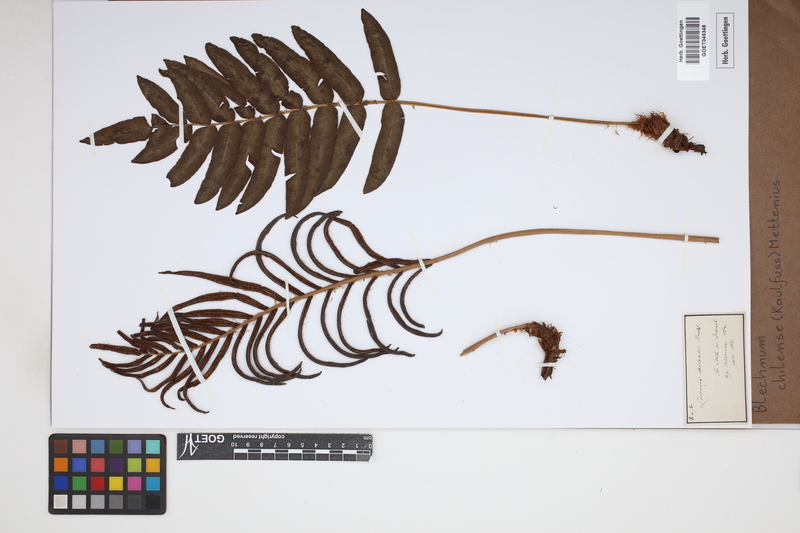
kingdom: Plantae
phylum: Tracheophyta
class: Polypodiopsida
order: Polypodiales
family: Blechnaceae
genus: Parablechnum
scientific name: Parablechnum chilense
